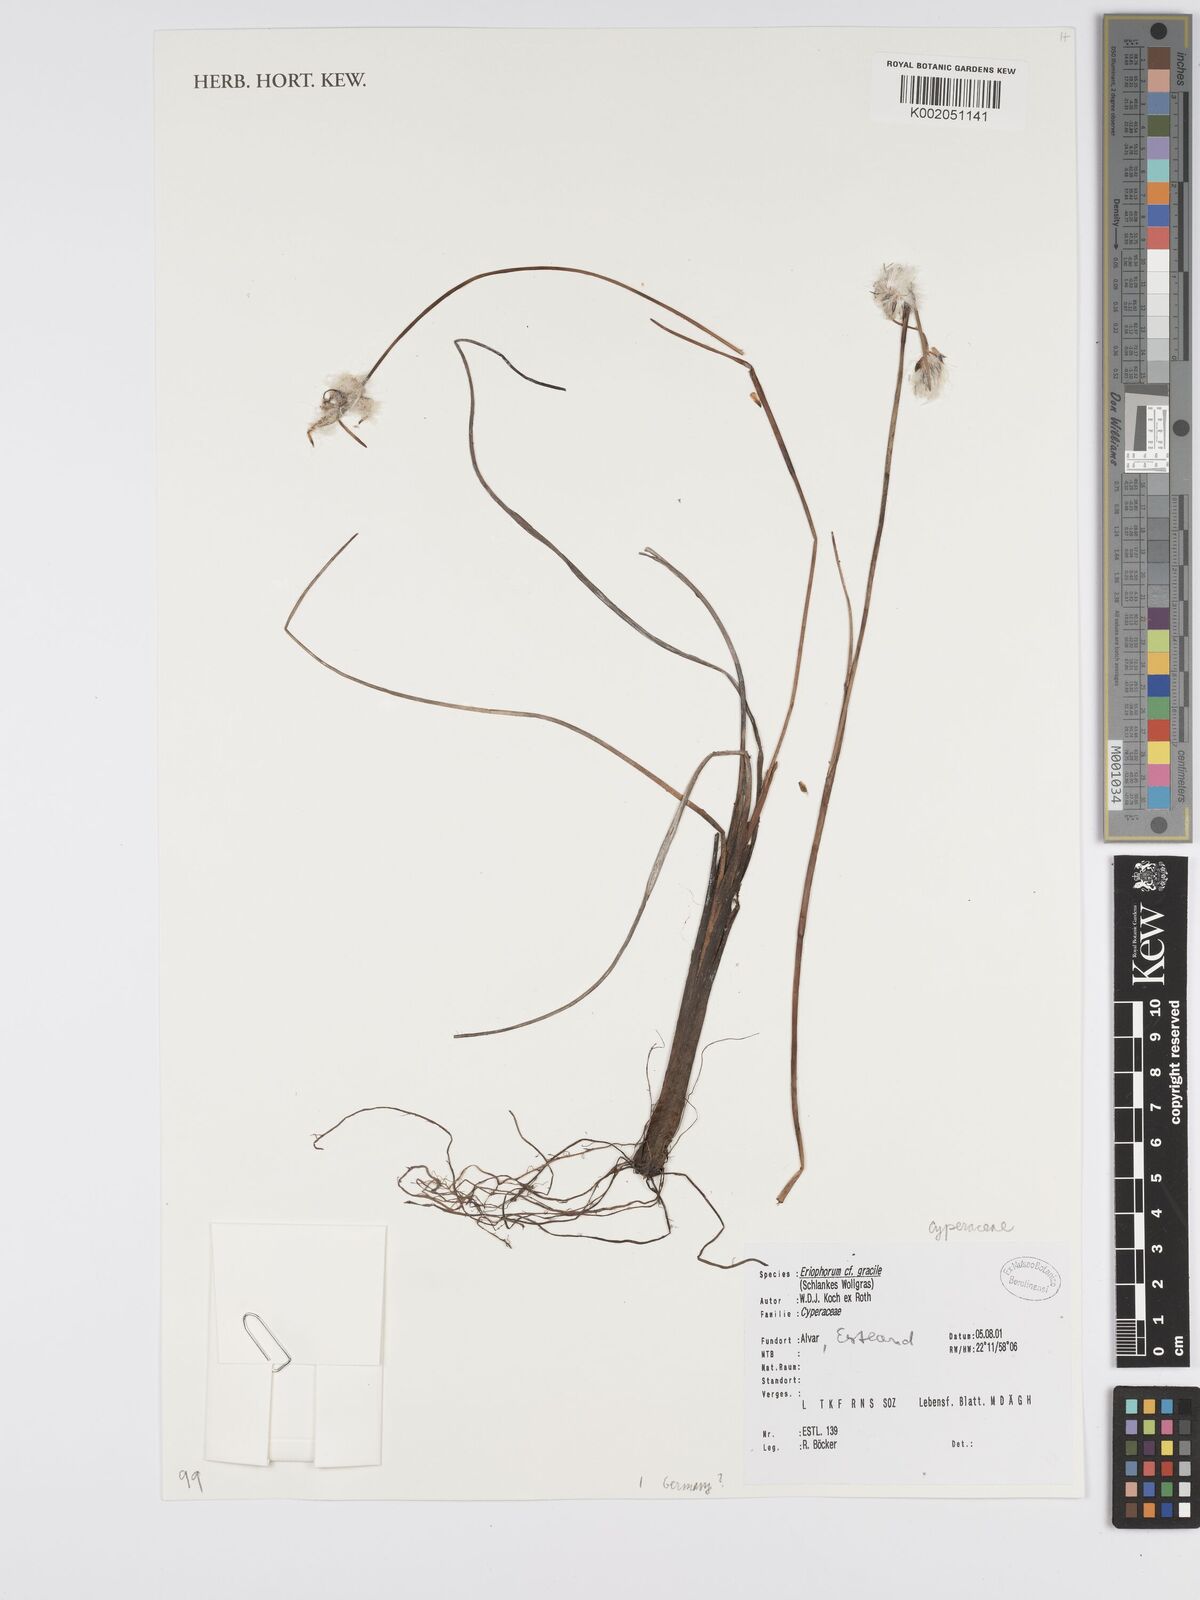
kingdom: Plantae
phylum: Tracheophyta
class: Liliopsida
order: Poales
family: Cyperaceae
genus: Eriophorum
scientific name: Eriophorum gracile
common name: Slender cottongrass
